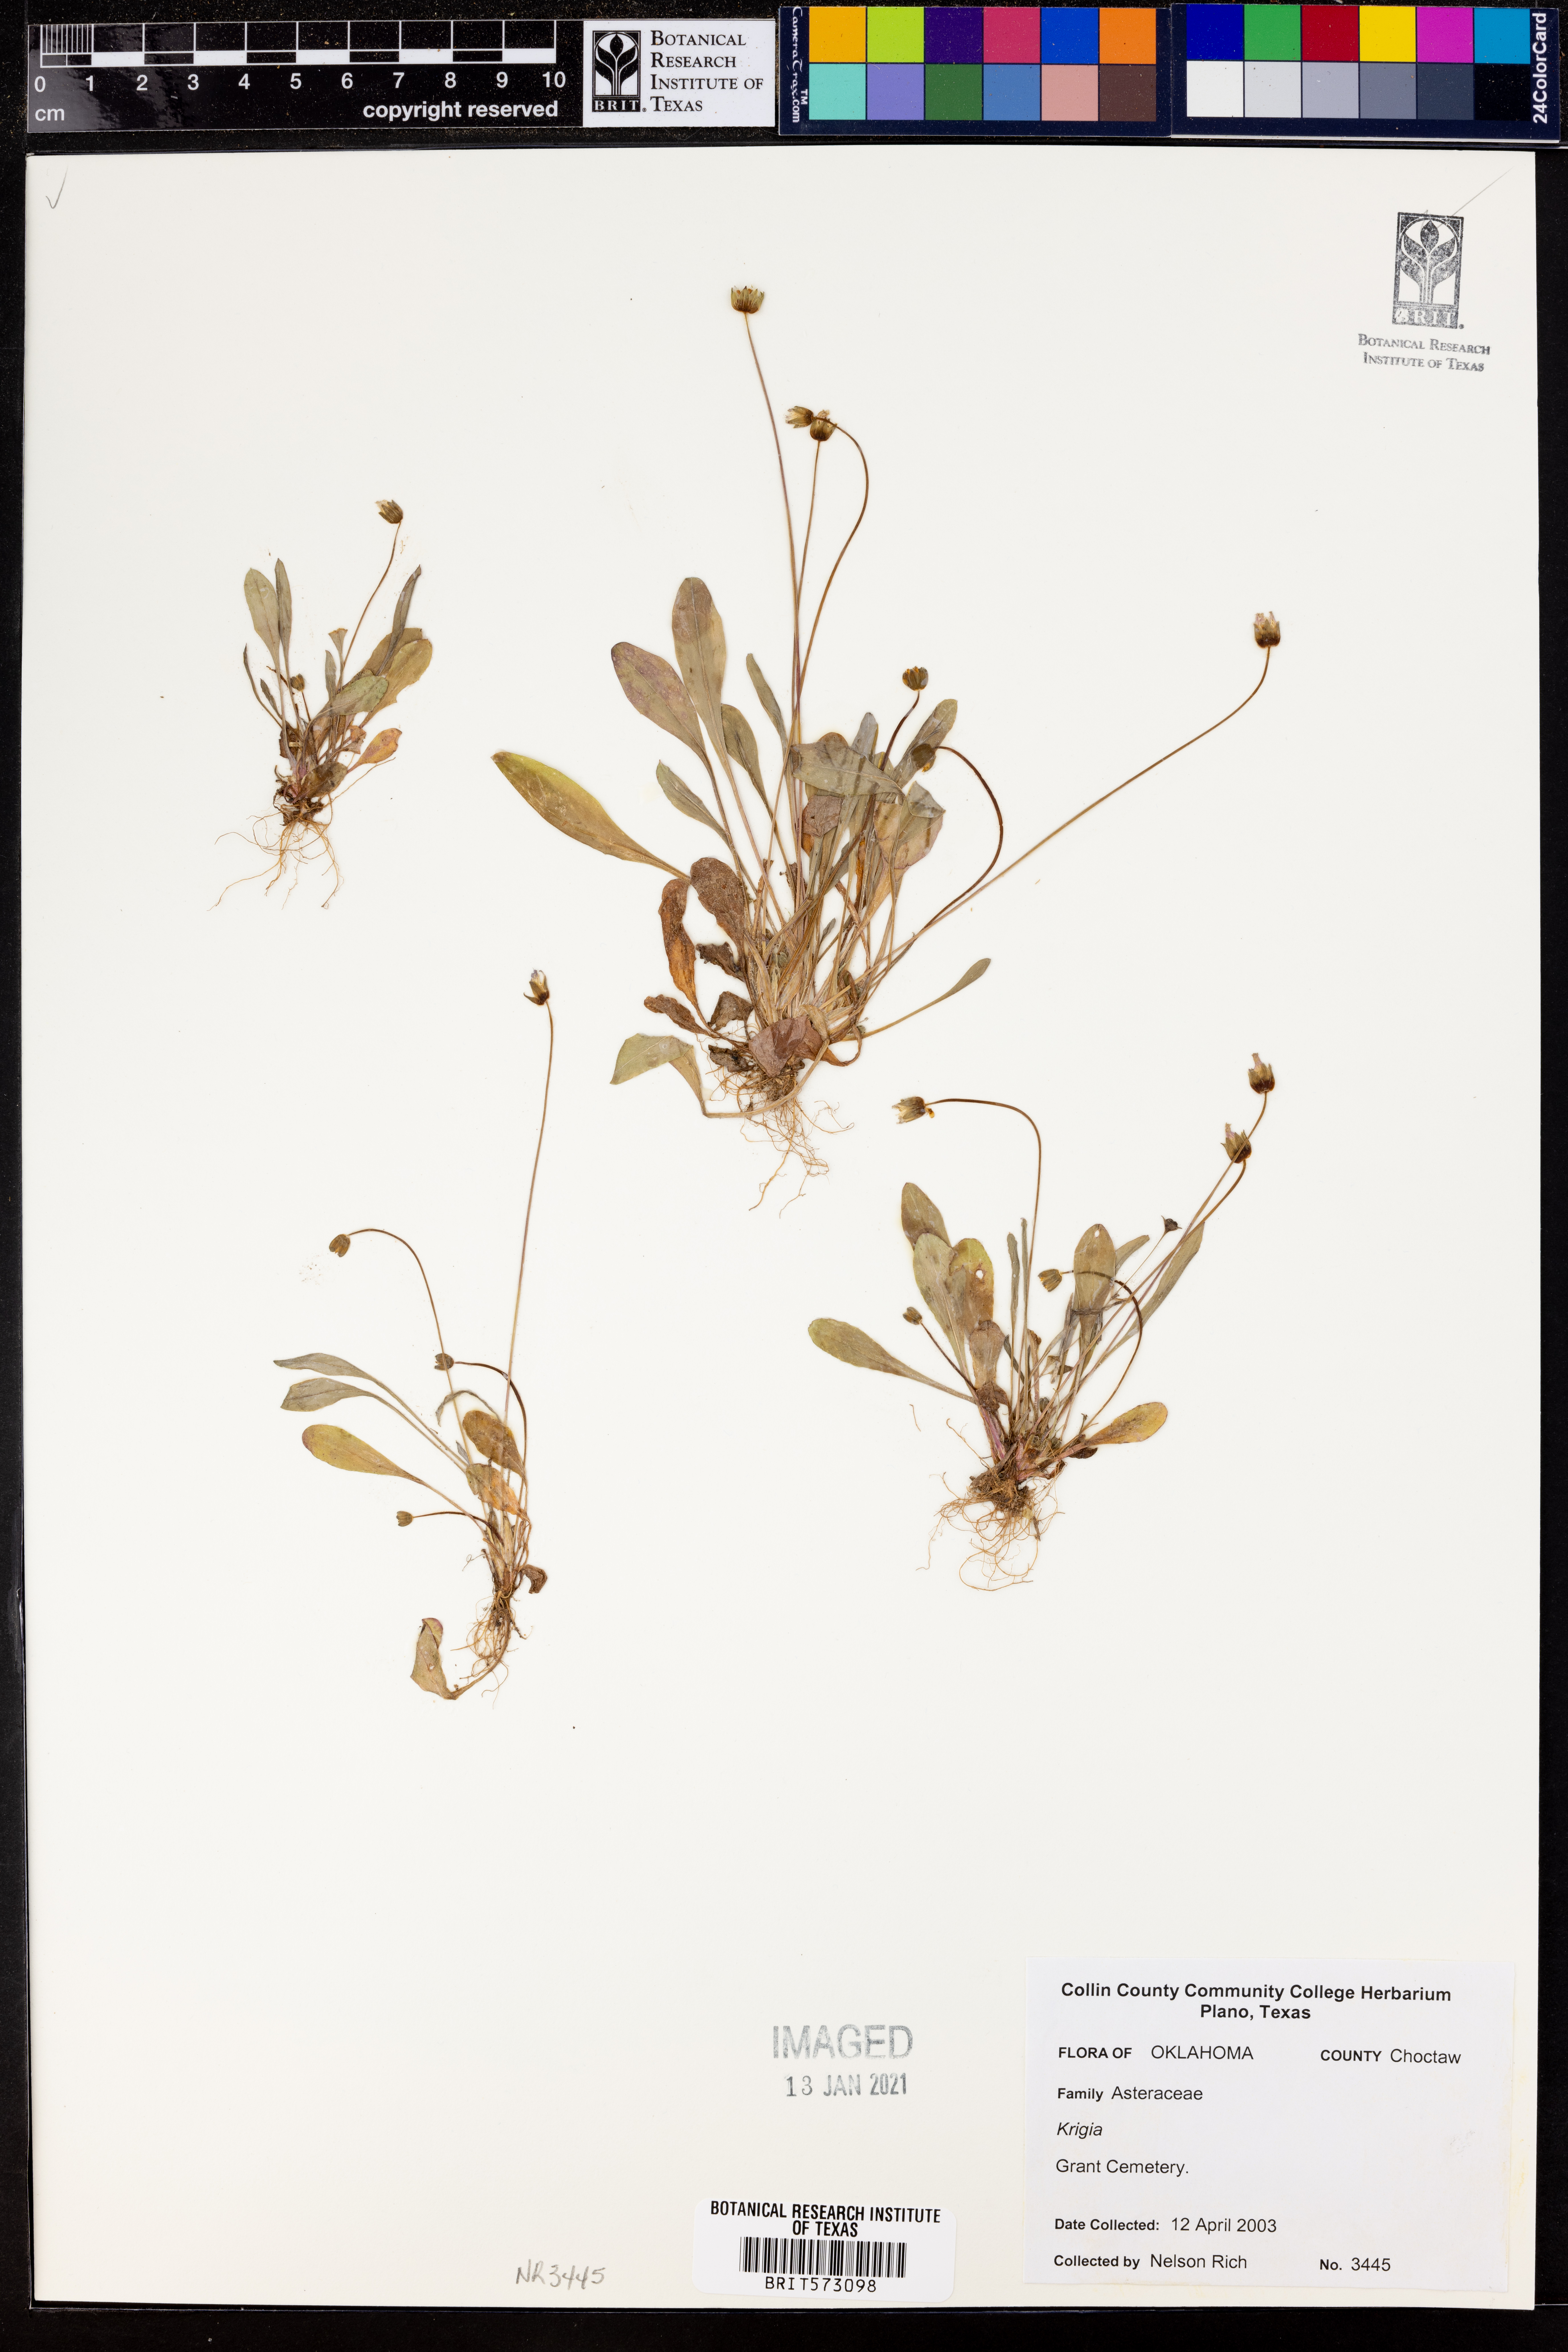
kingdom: Plantae
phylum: Tracheophyta
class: Magnoliopsida
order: Asterales
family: Asteraceae
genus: Krigia
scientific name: Krigia
